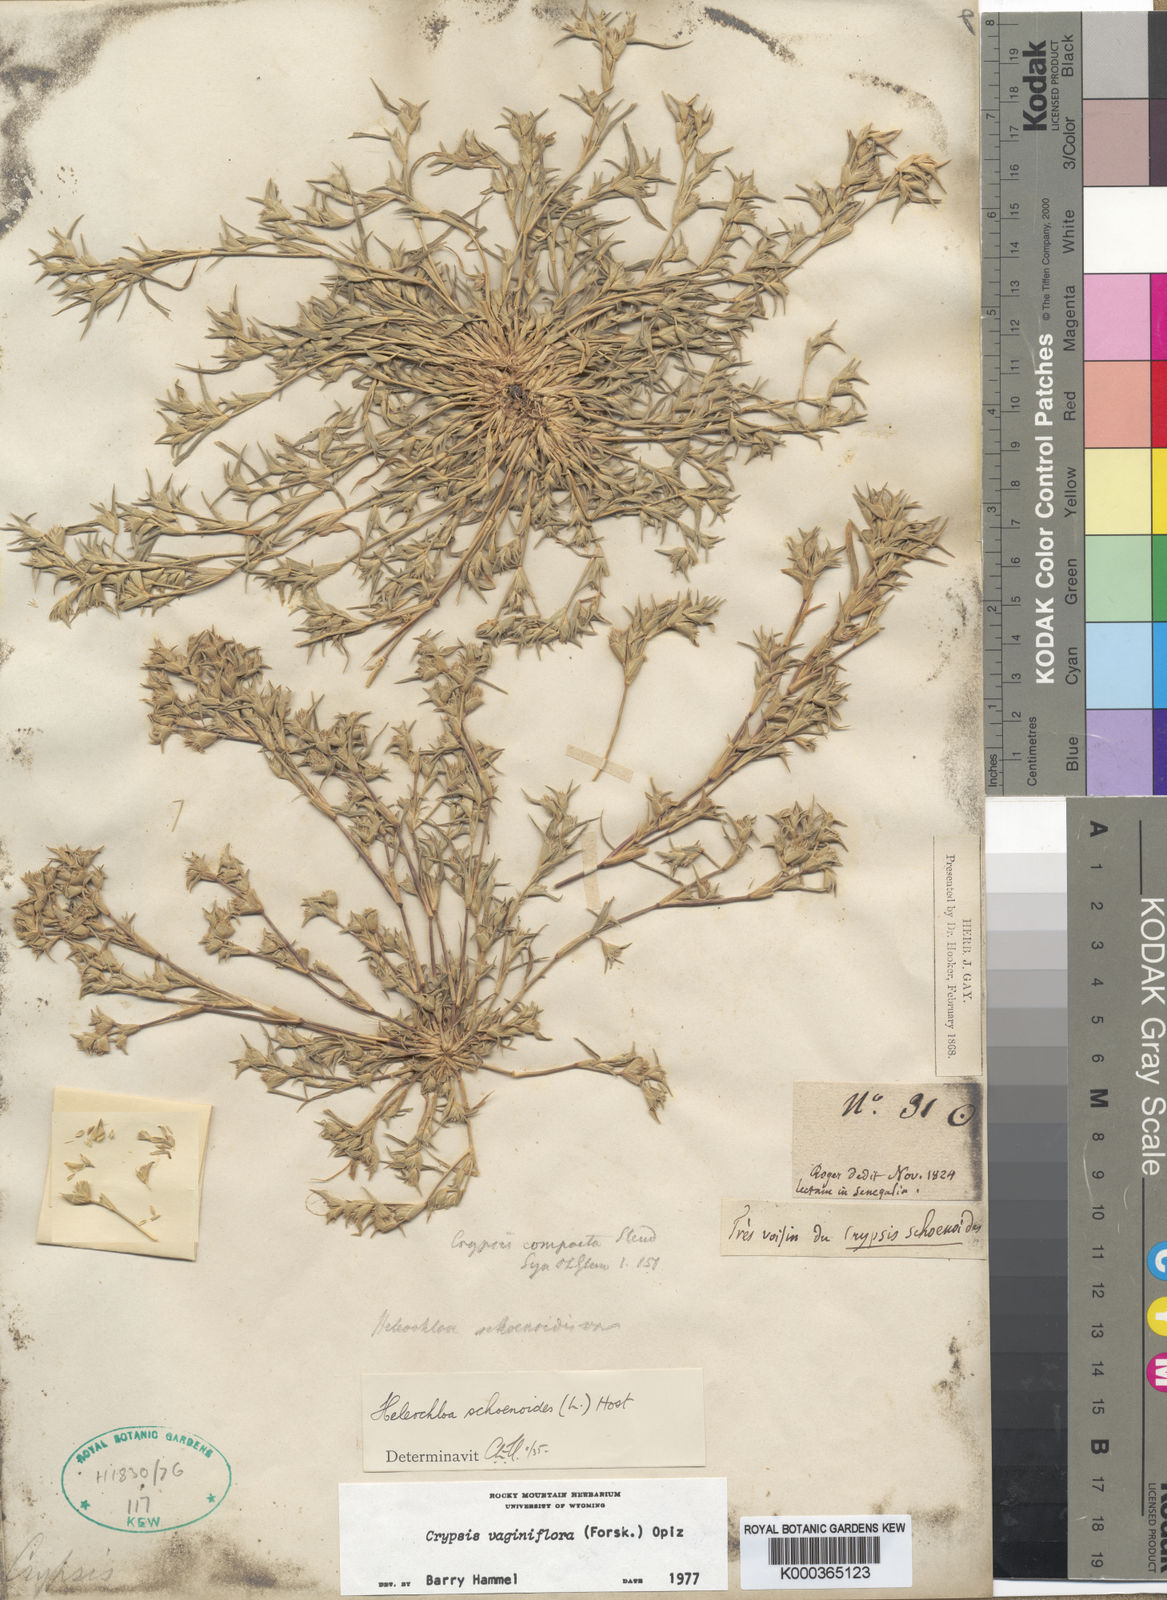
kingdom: Plantae
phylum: Tracheophyta
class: Liliopsida
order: Poales
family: Poaceae
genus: Sporobolus
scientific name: Sporobolus niliacus
